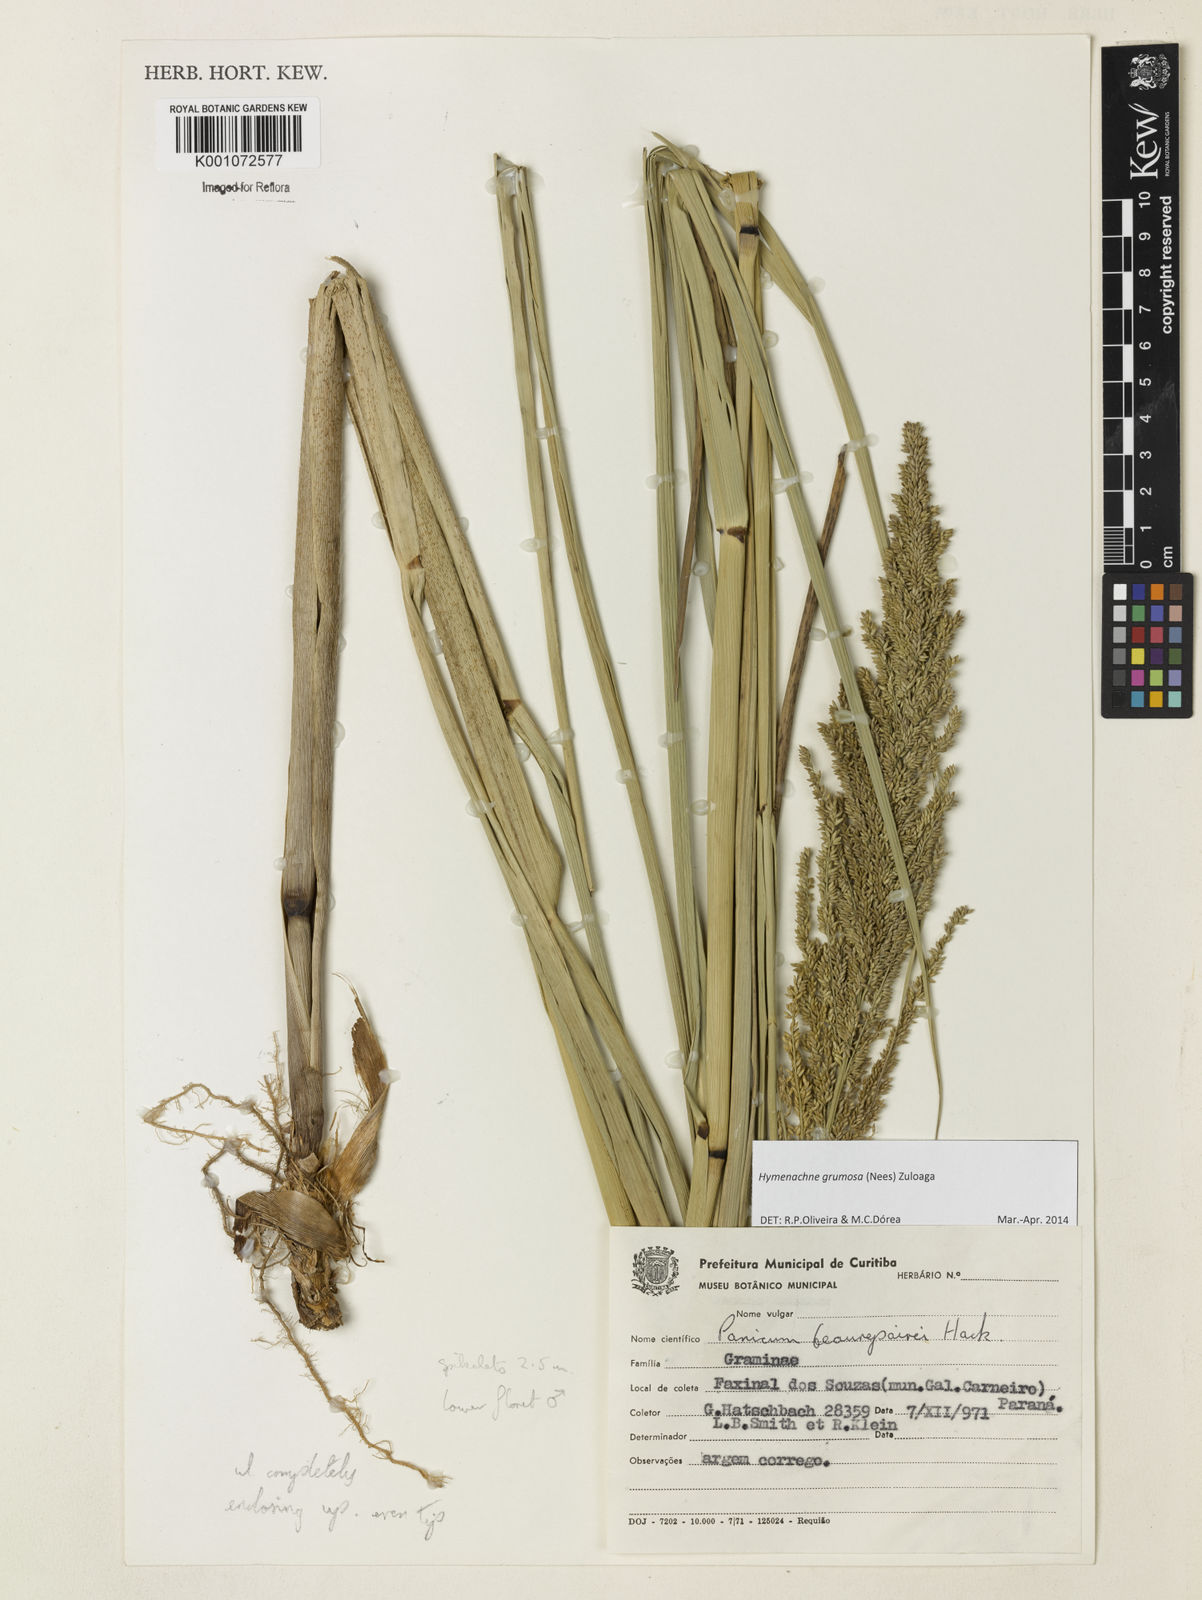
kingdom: Plantae
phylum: Tracheophyta
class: Liliopsida
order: Poales
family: Poaceae
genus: Hymenachne
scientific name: Hymenachne grumosa
